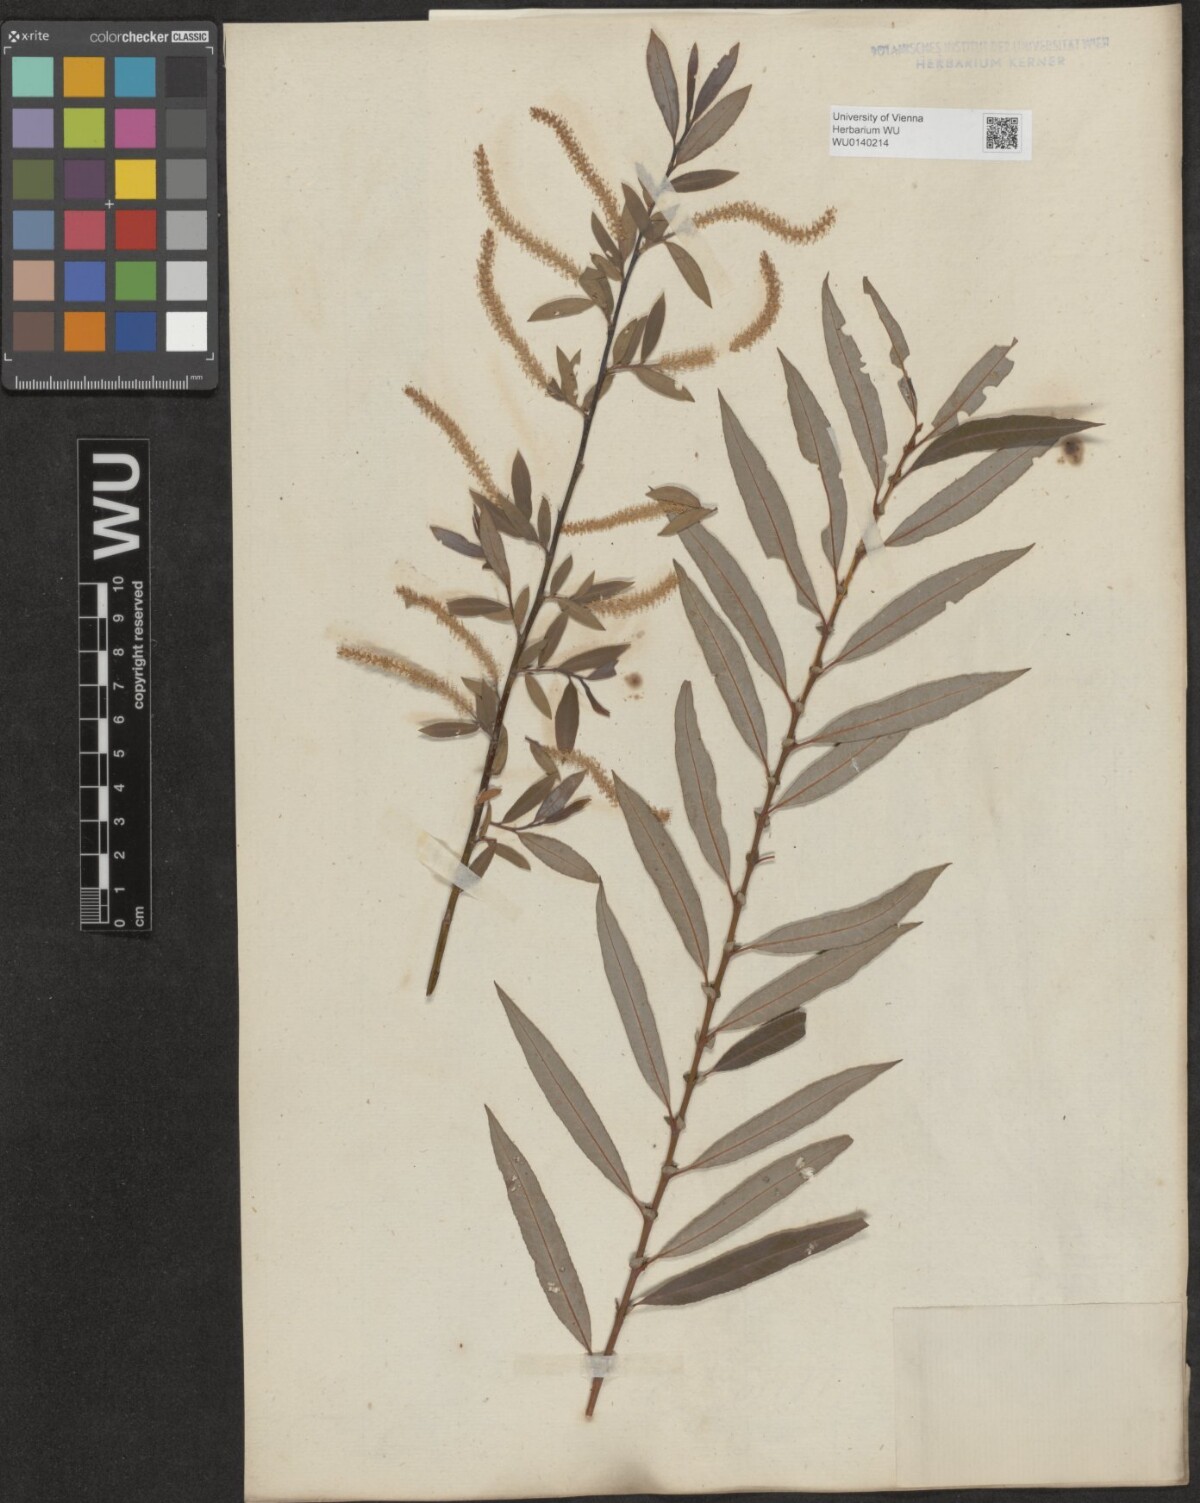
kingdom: Plantae
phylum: Tracheophyta
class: Magnoliopsida
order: Malpighiales
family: Salicaceae
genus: Salix
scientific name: Salix triandra
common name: Almond willow
